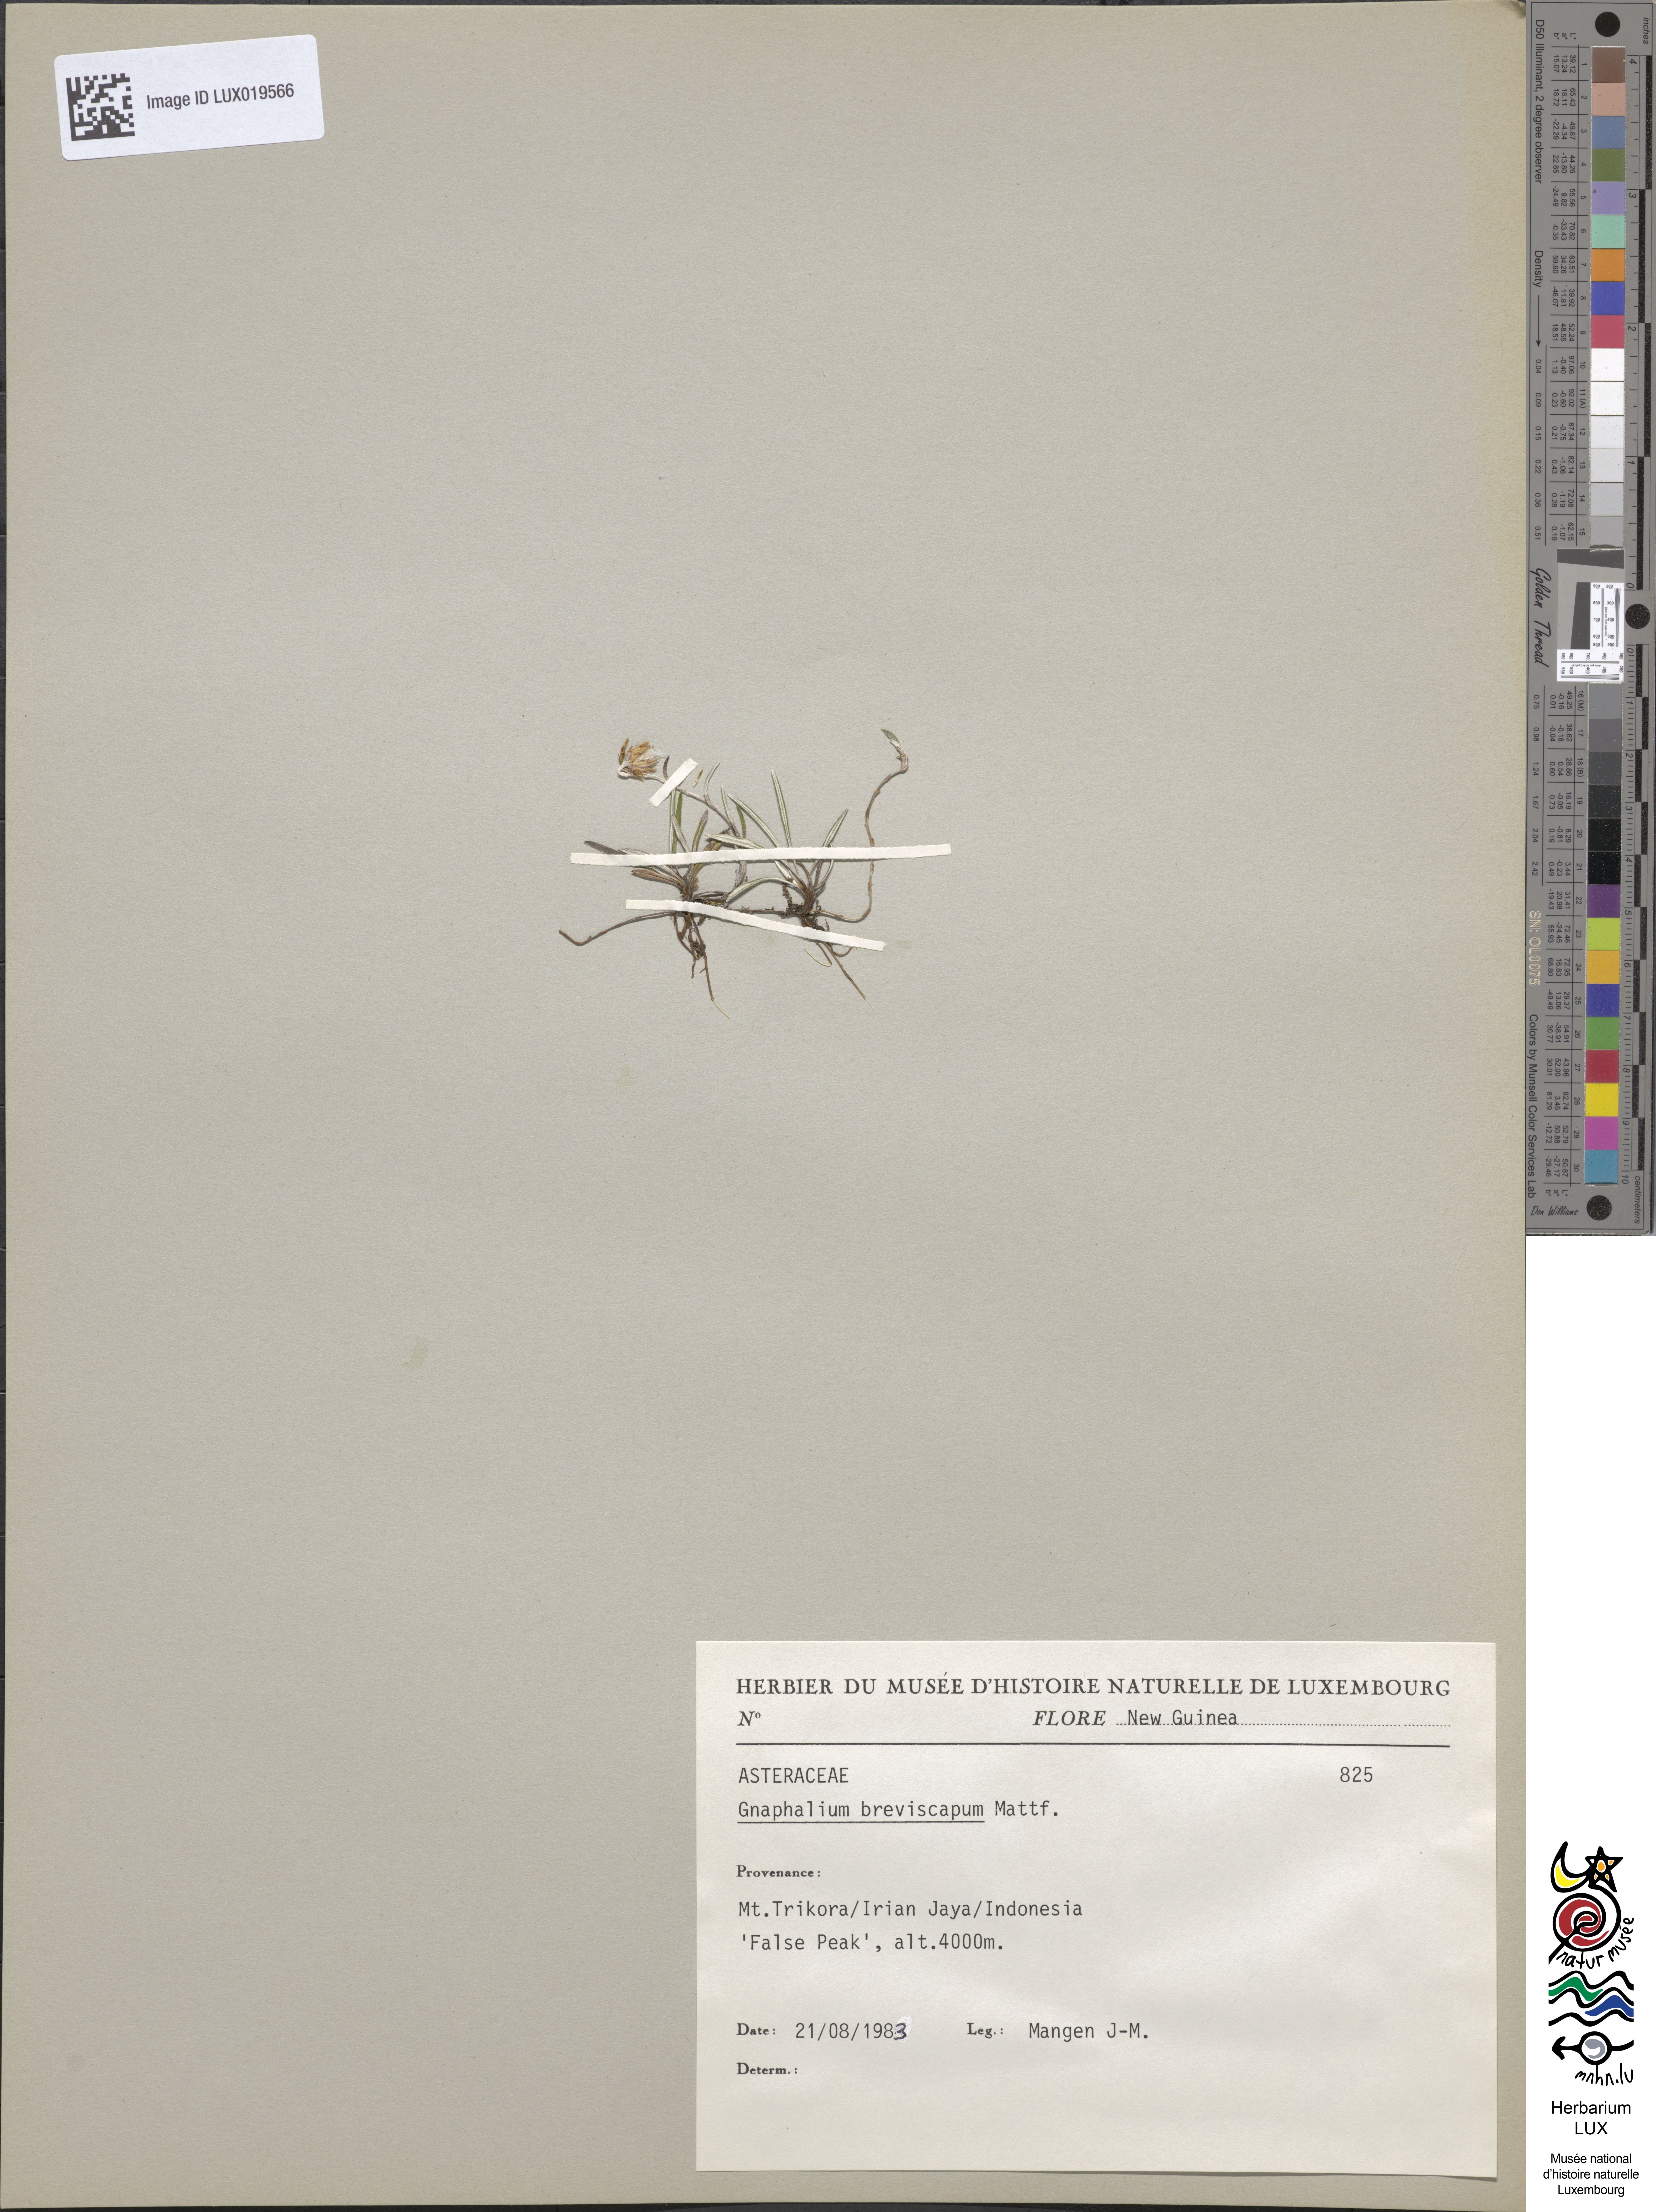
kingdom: Plantae
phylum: Tracheophyta
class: Magnoliopsida
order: Asterales
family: Asteraceae
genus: Euchiton
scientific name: Euchiton breviscapus
